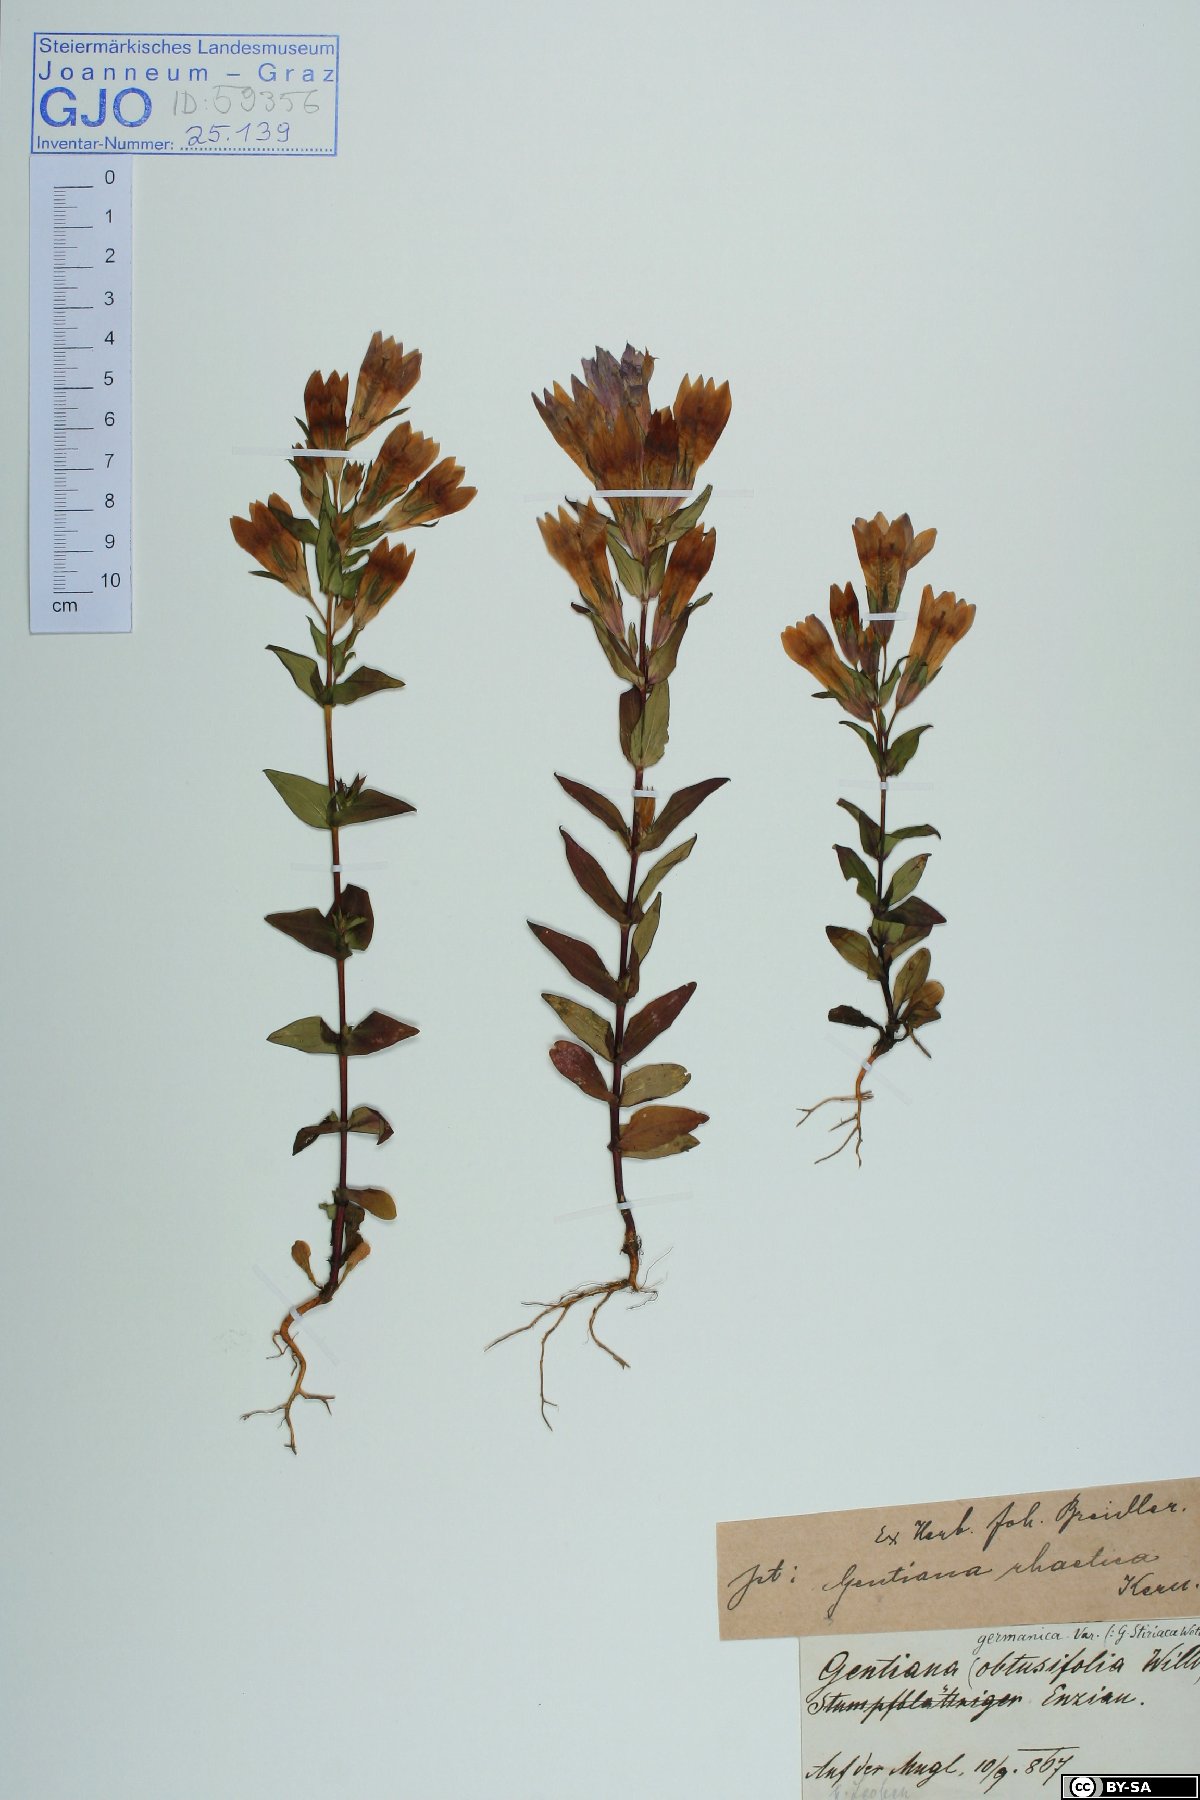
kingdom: Plantae
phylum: Tracheophyta
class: Magnoliopsida
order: Gentianales
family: Gentianaceae
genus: Gentianella
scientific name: Gentianella rhaetica
